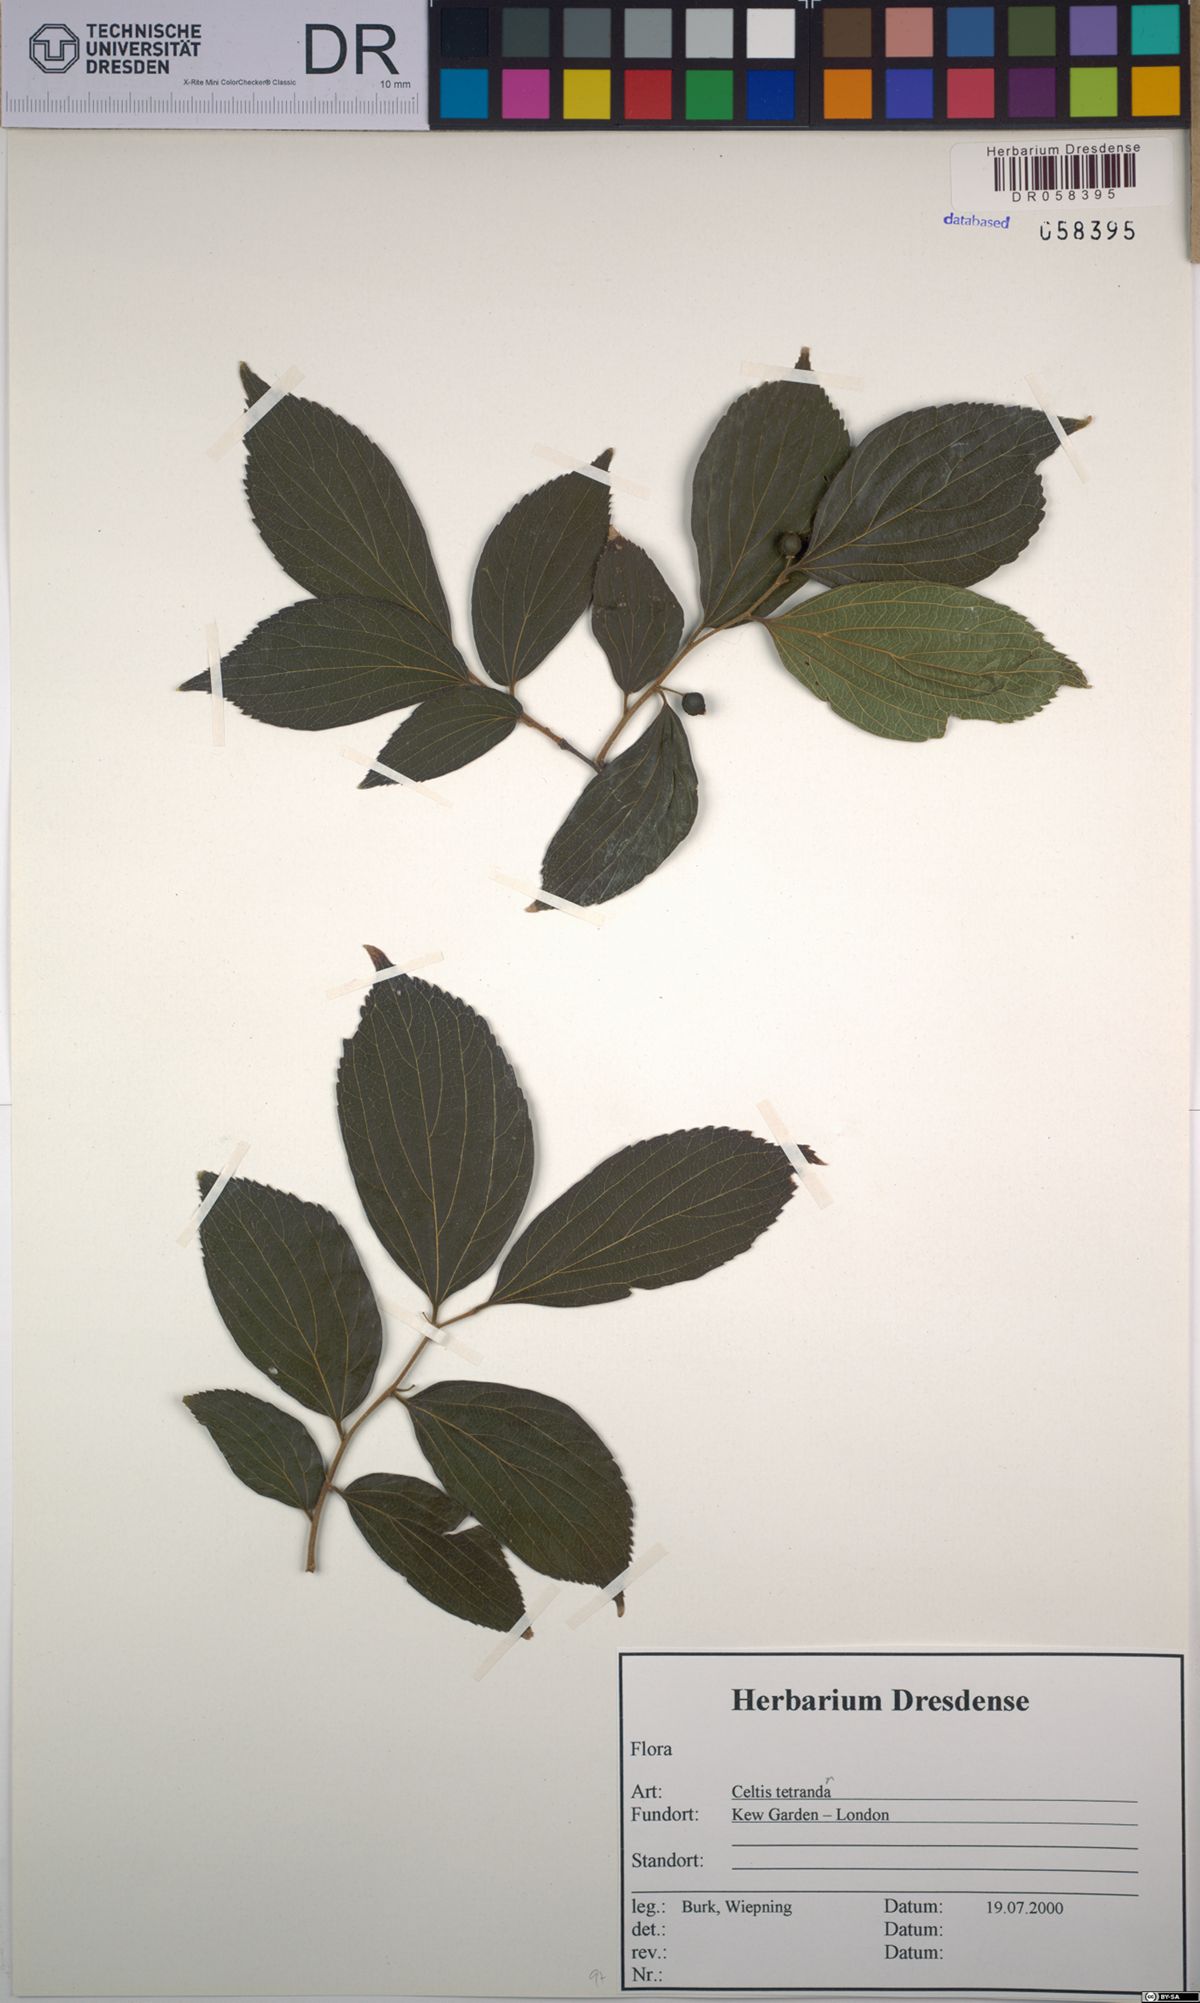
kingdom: Plantae
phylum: Tracheophyta
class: Magnoliopsida
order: Rosales
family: Cannabaceae
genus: Celtis
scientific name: Celtis tetrandra
